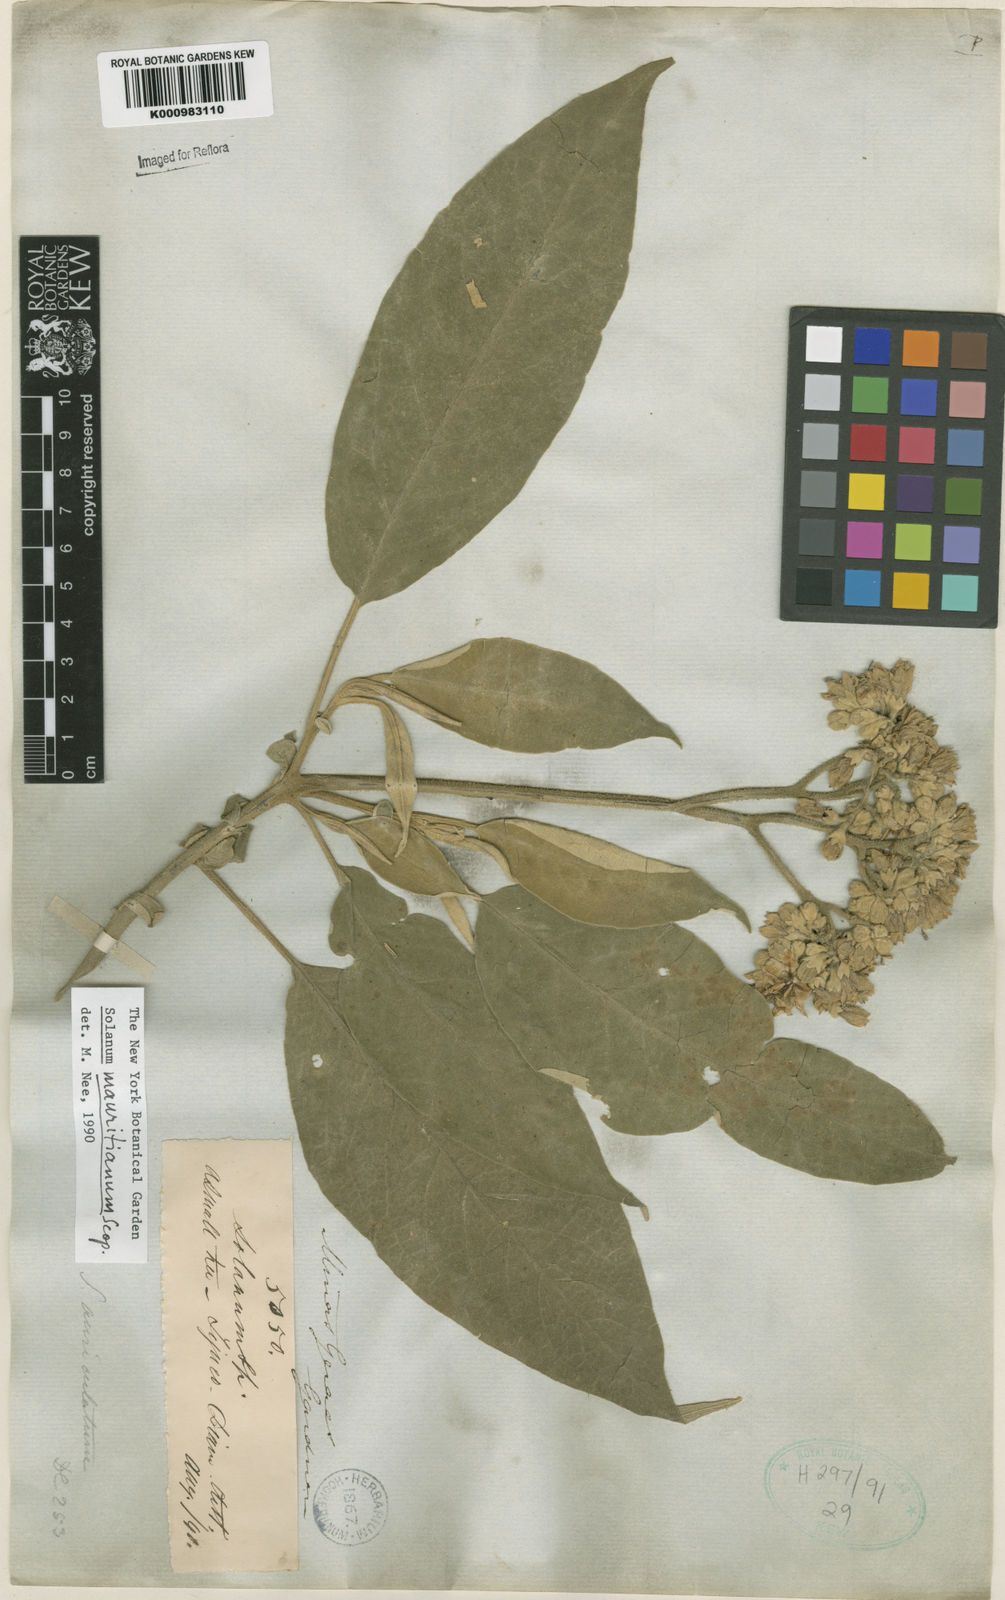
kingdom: Plantae
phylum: Tracheophyta
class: Magnoliopsida
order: Solanales
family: Solanaceae
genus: Solanum
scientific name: Solanum mauritianum
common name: Earleaf nightshade
